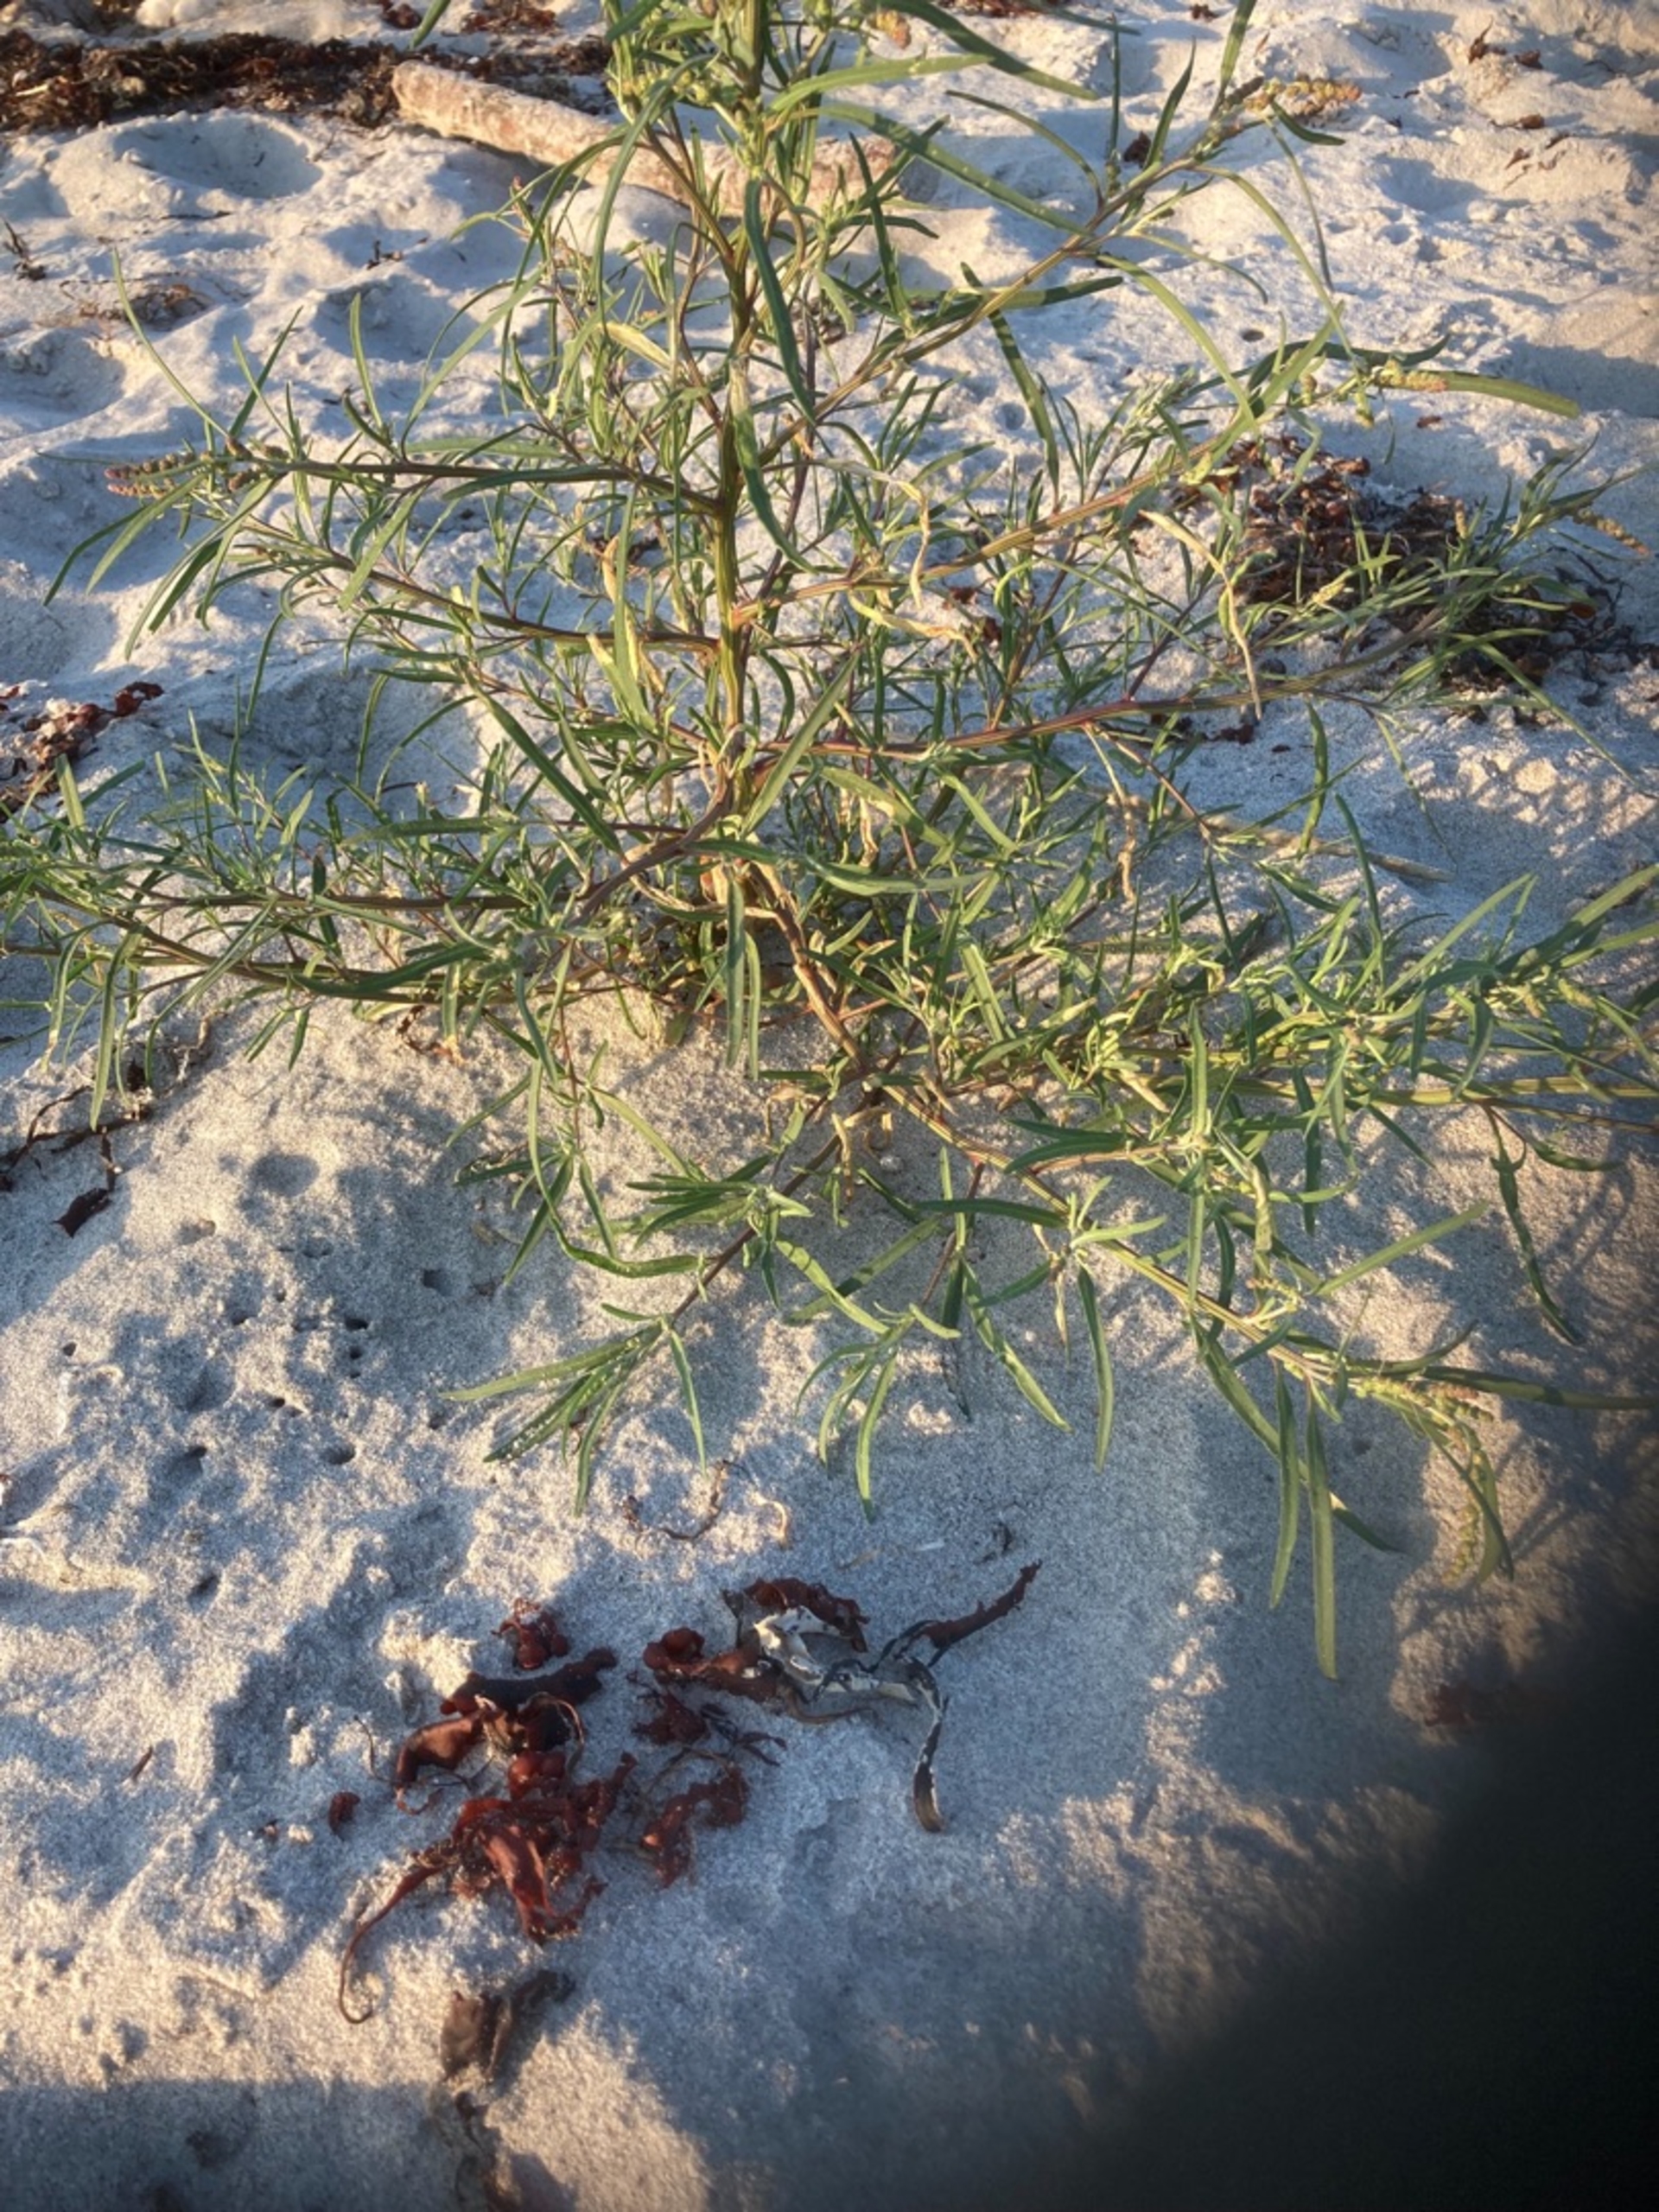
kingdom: Plantae
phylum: Tracheophyta
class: Magnoliopsida
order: Caryophyllales
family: Amaranthaceae
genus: Atriplex
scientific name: Atriplex littoralis
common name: Strand-mælde
